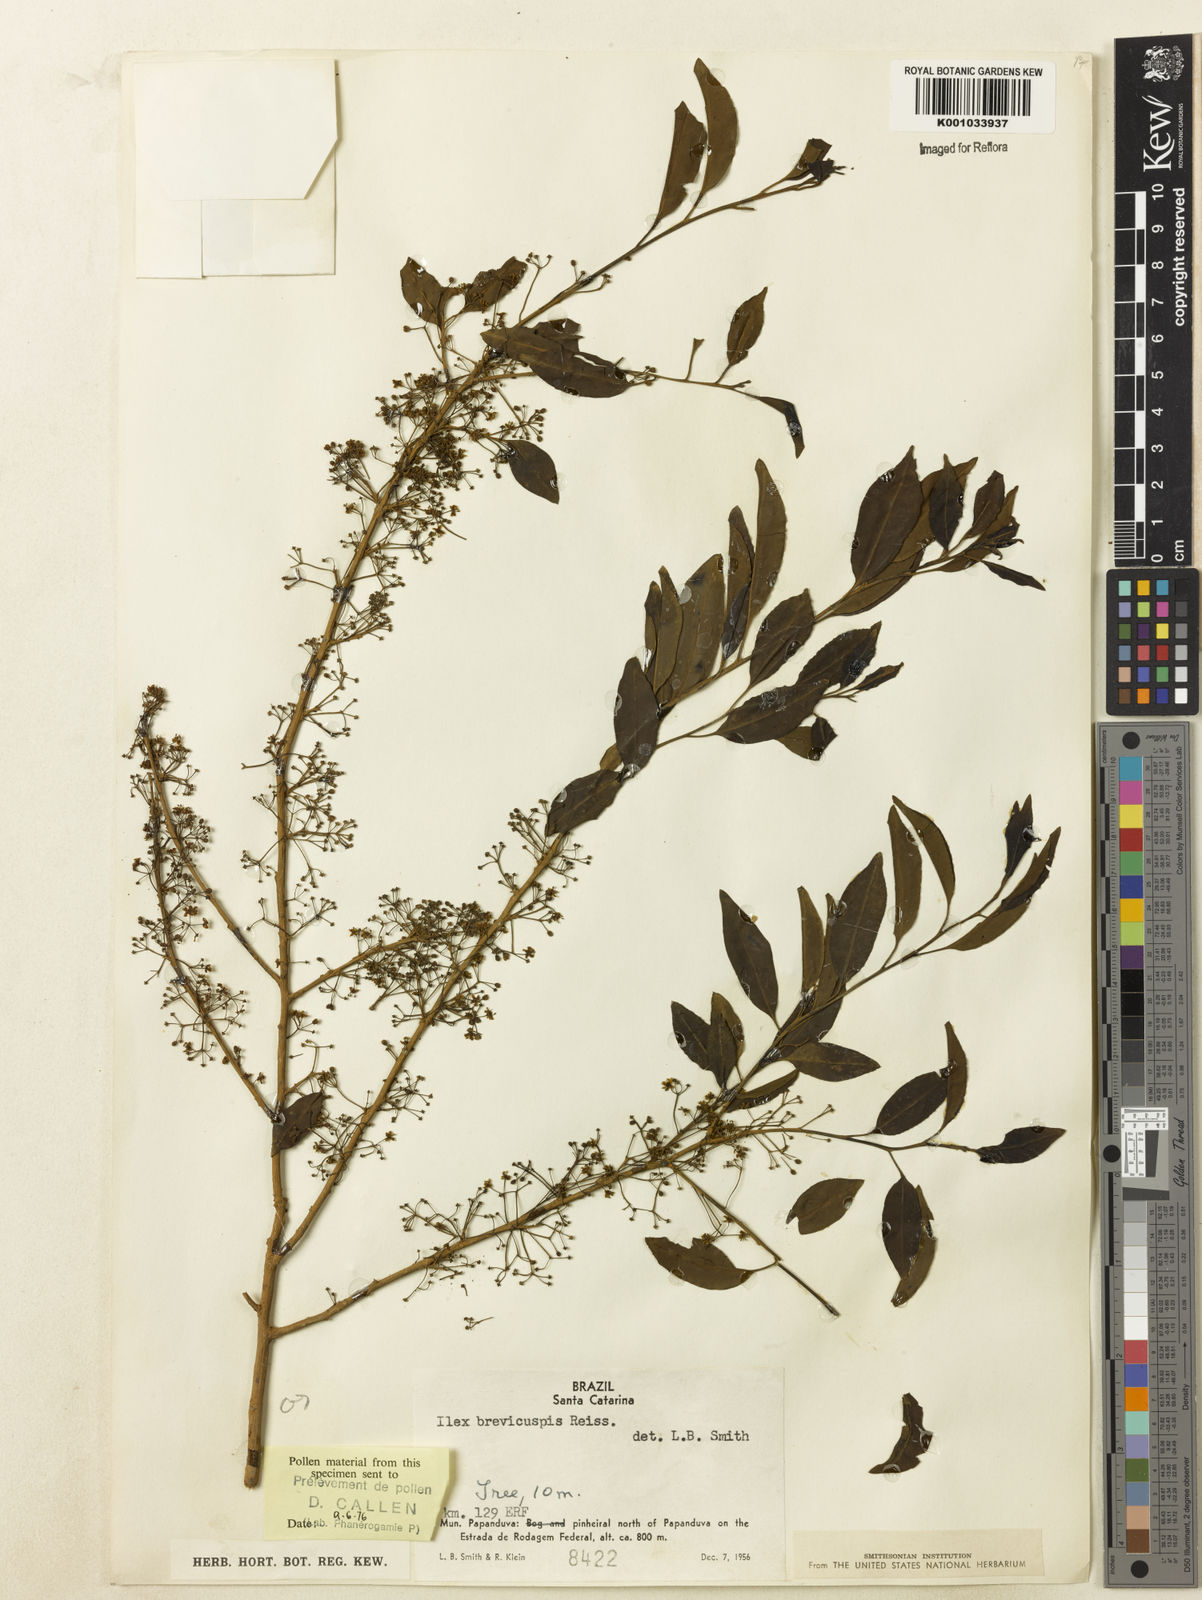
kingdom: Plantae
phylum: Tracheophyta
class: Magnoliopsida
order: Aquifoliales
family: Aquifoliaceae
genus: Ilex
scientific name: Ilex brevicuspis
